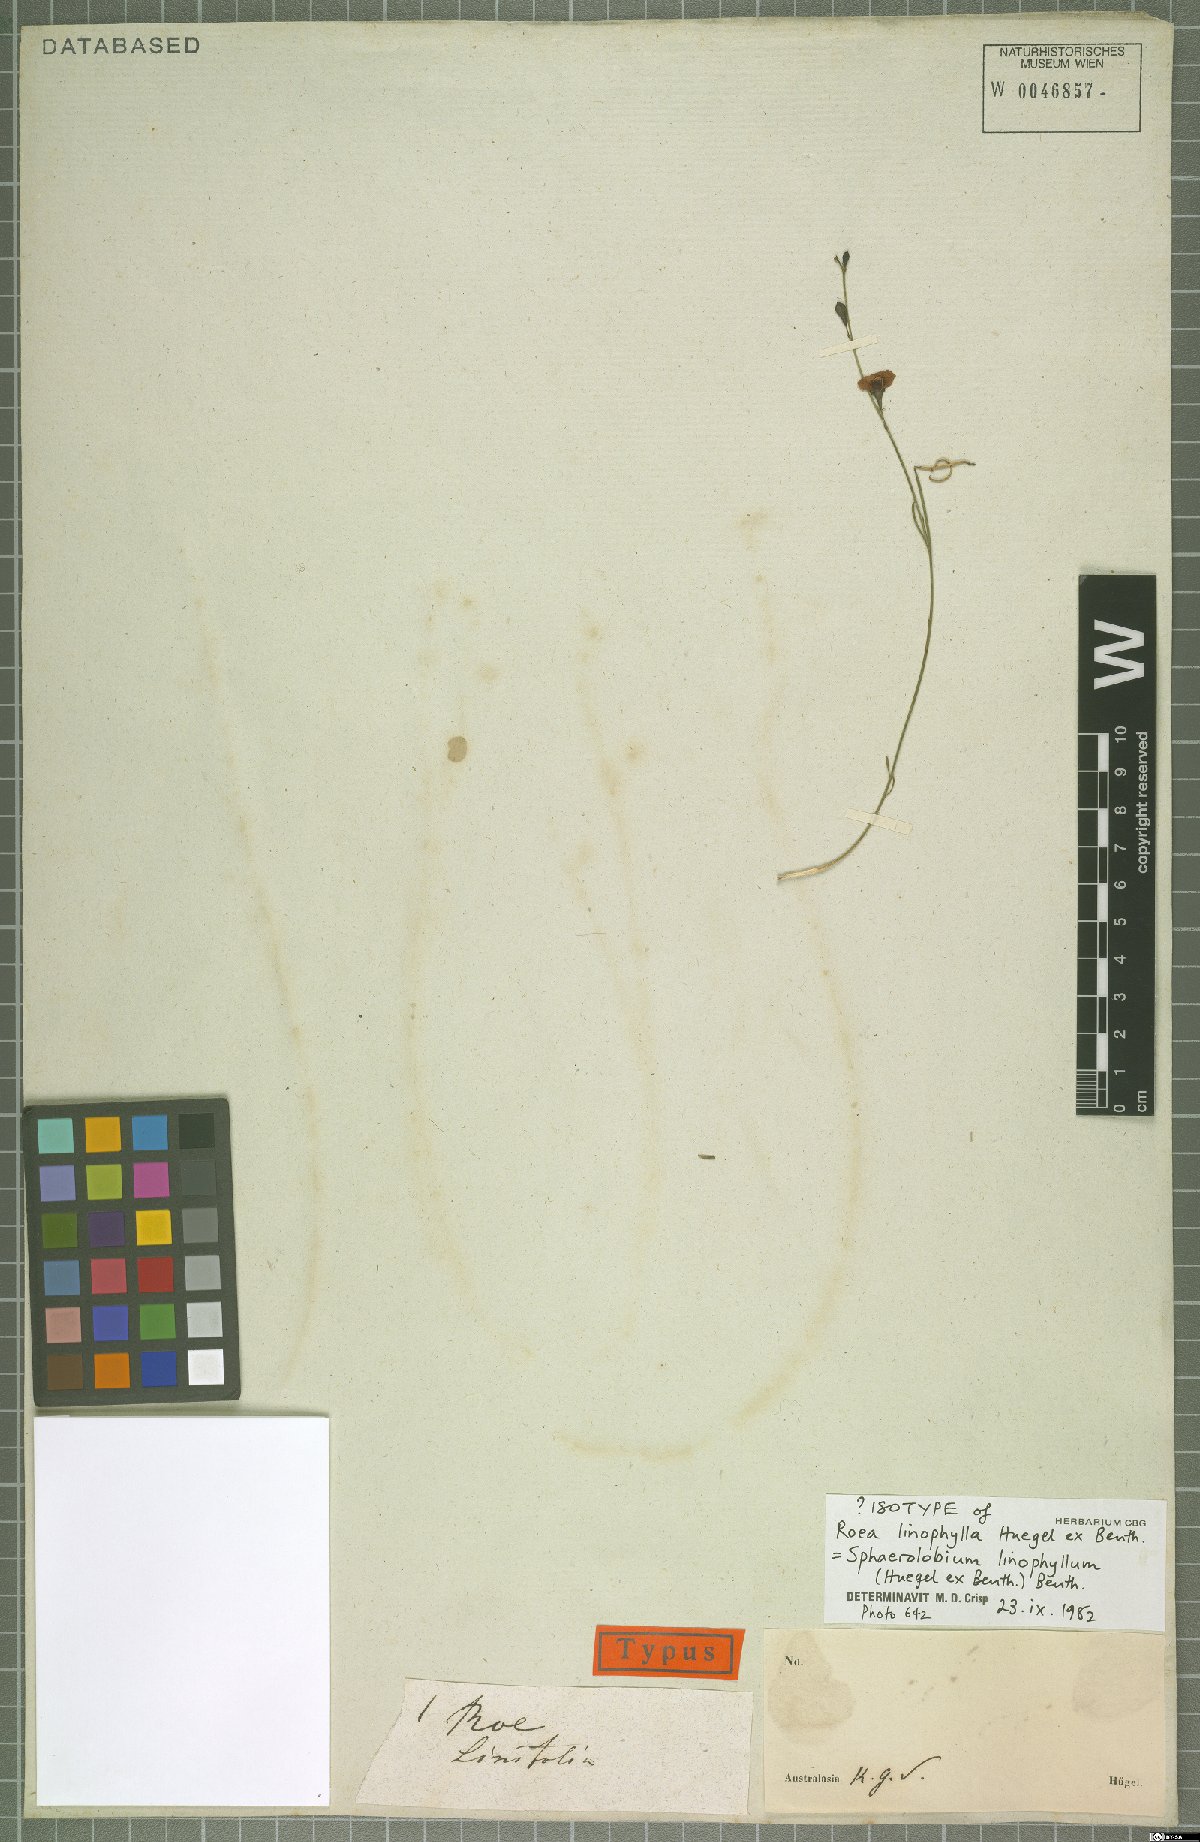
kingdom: Plantae
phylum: Tracheophyta
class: Magnoliopsida
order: Fabales
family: Fabaceae
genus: Sphaerolobium
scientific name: Sphaerolobium linophyllum
